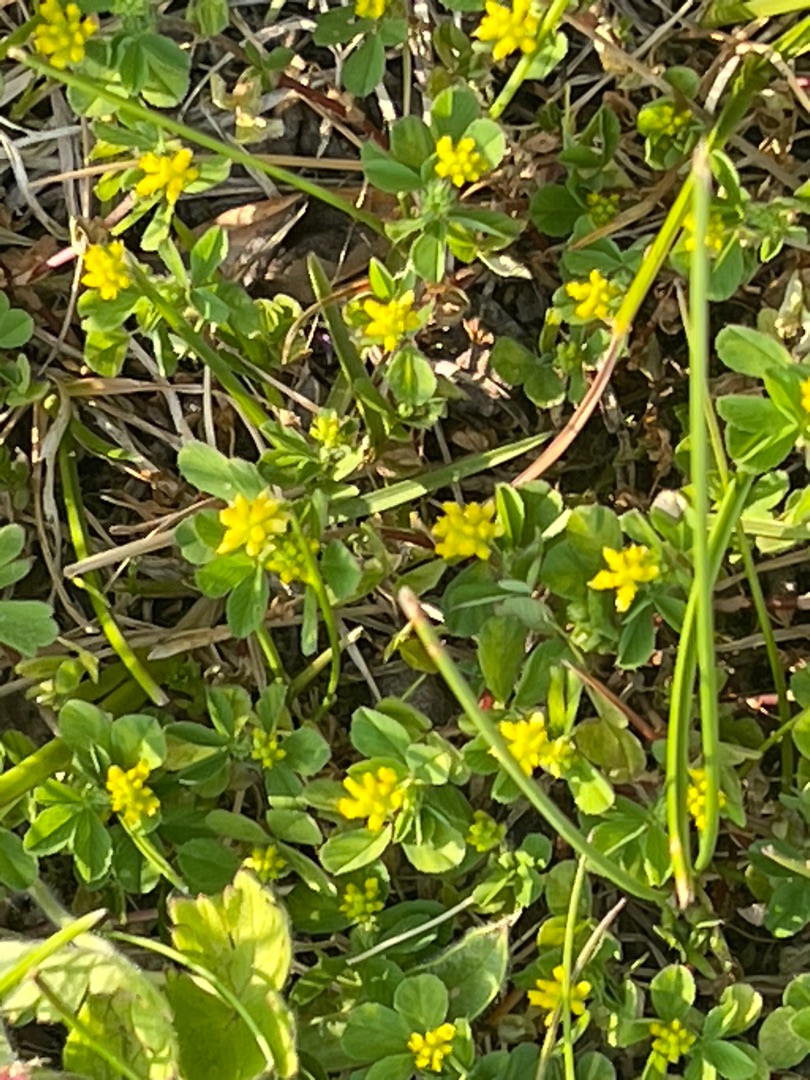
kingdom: Plantae
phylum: Tracheophyta
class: Magnoliopsida
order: Fabales
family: Fabaceae
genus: Trifolium
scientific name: Trifolium dubium
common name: Fin kløver
